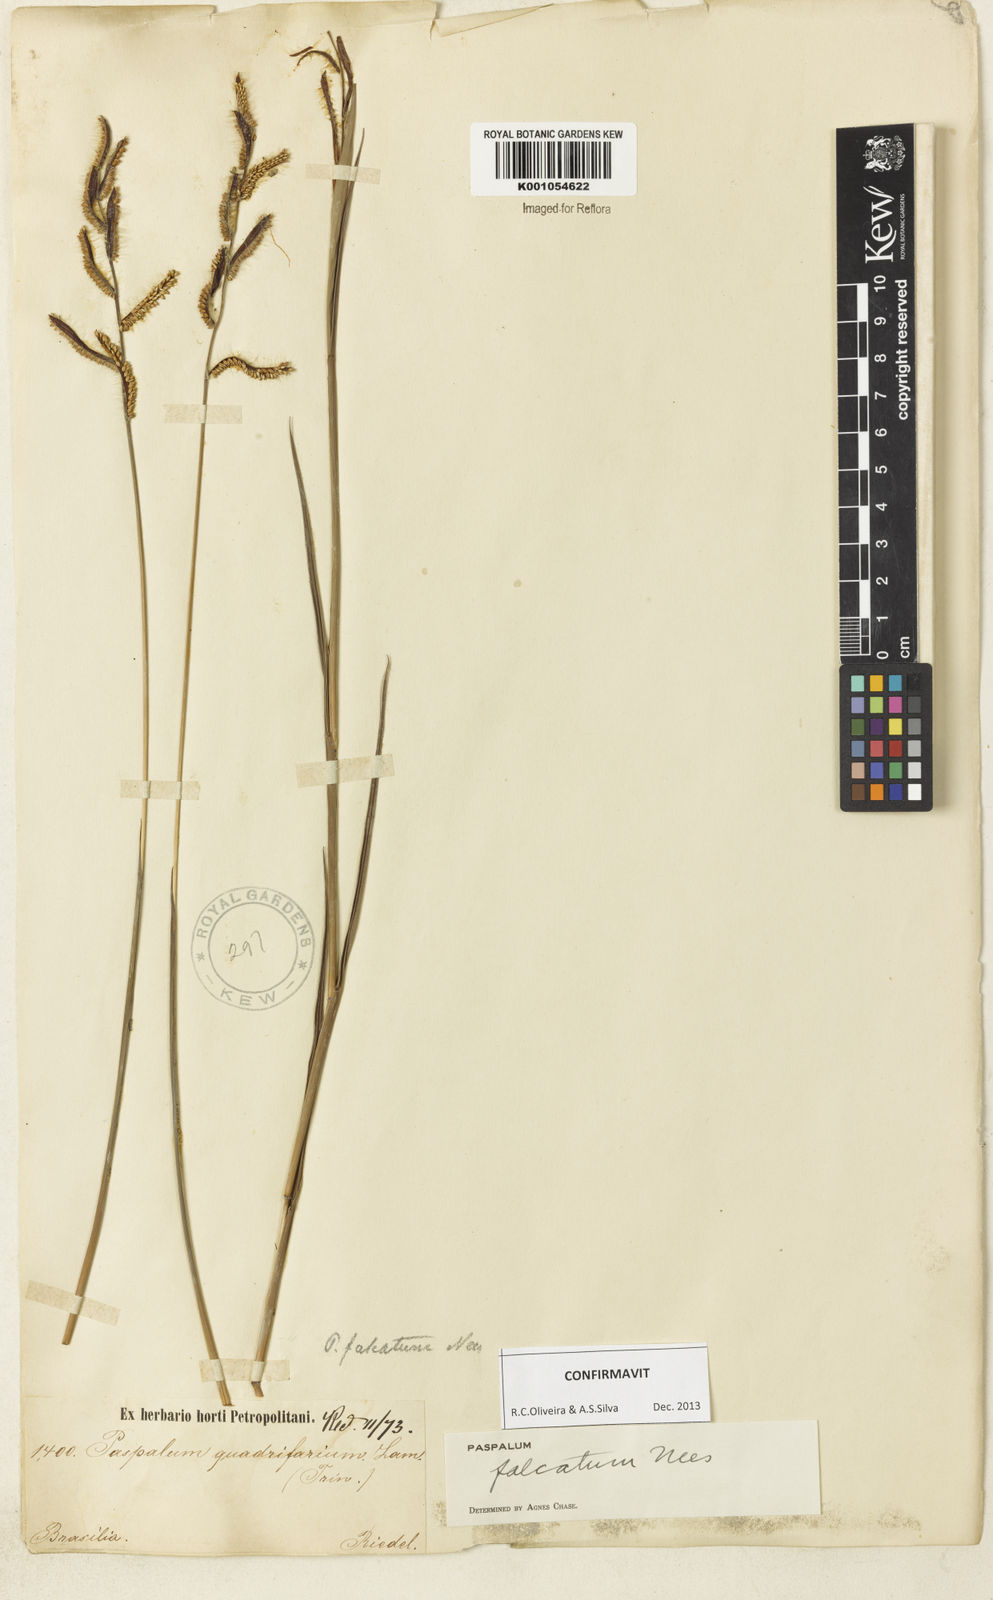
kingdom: Plantae
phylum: Tracheophyta
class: Liliopsida
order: Poales
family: Poaceae
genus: Paspalum
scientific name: Paspalum falcatum
